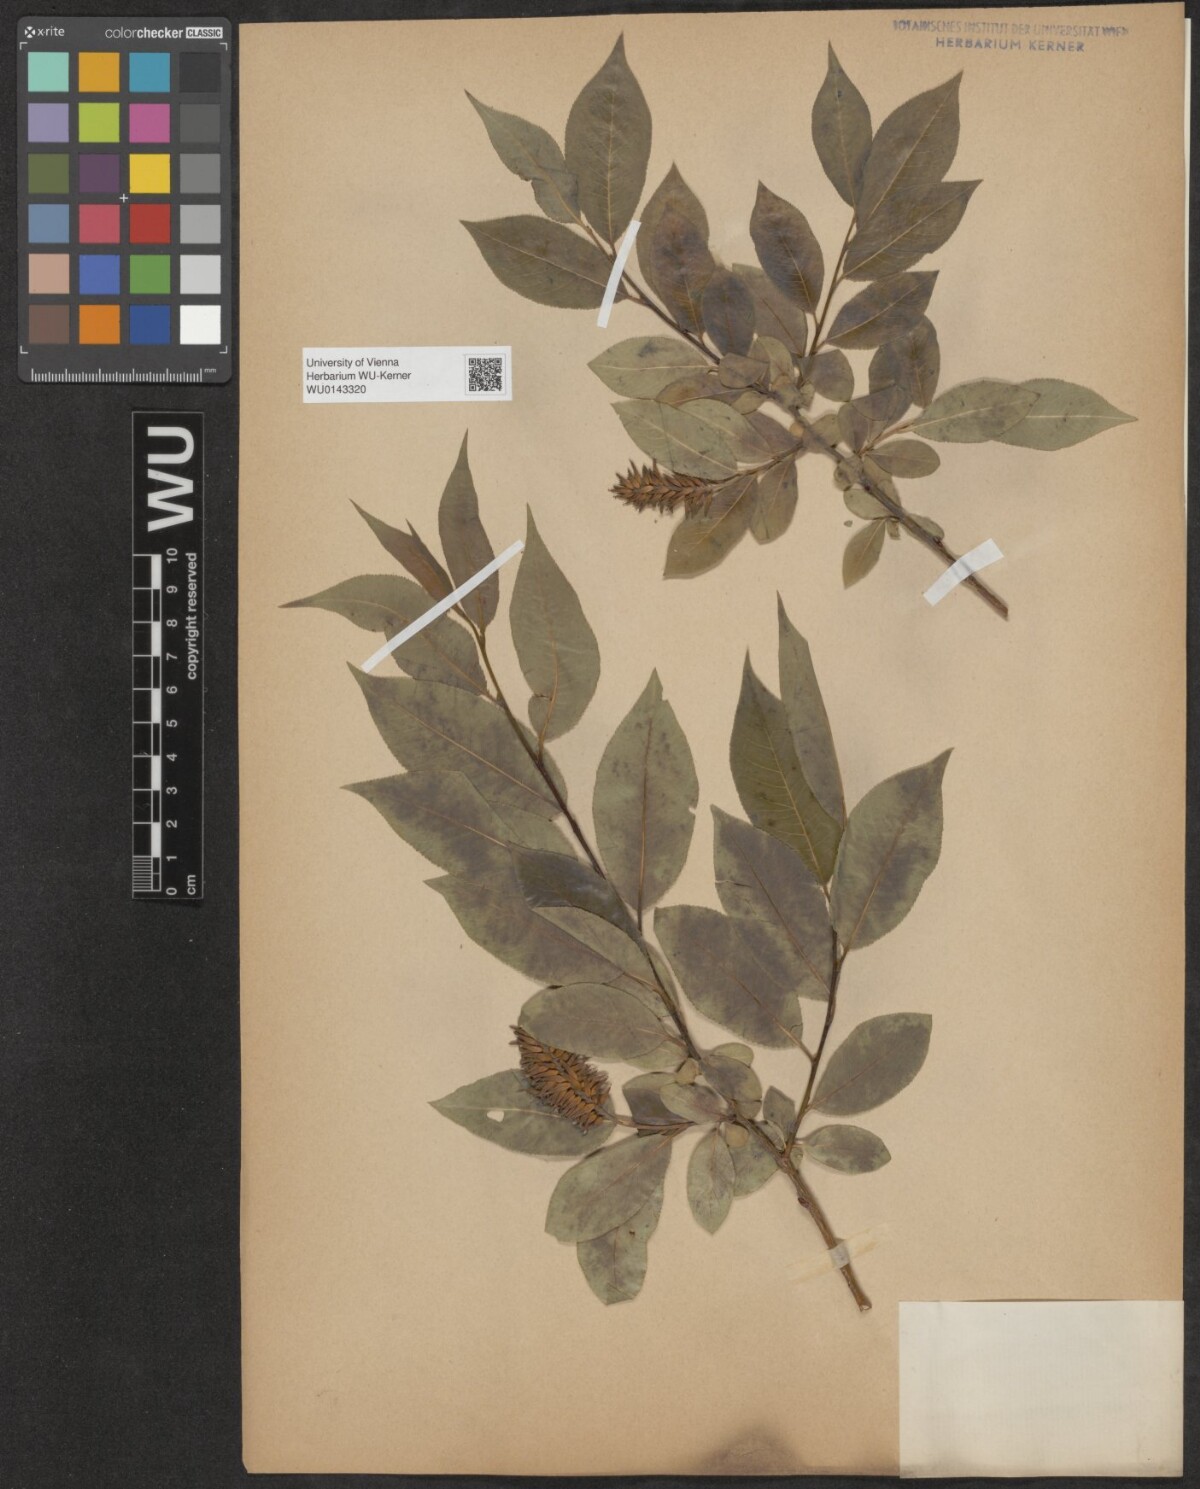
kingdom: Plantae
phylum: Tracheophyta
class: Magnoliopsida
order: Malpighiales
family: Salicaceae
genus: Salix
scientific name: Salix pentandra
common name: Bay willow
